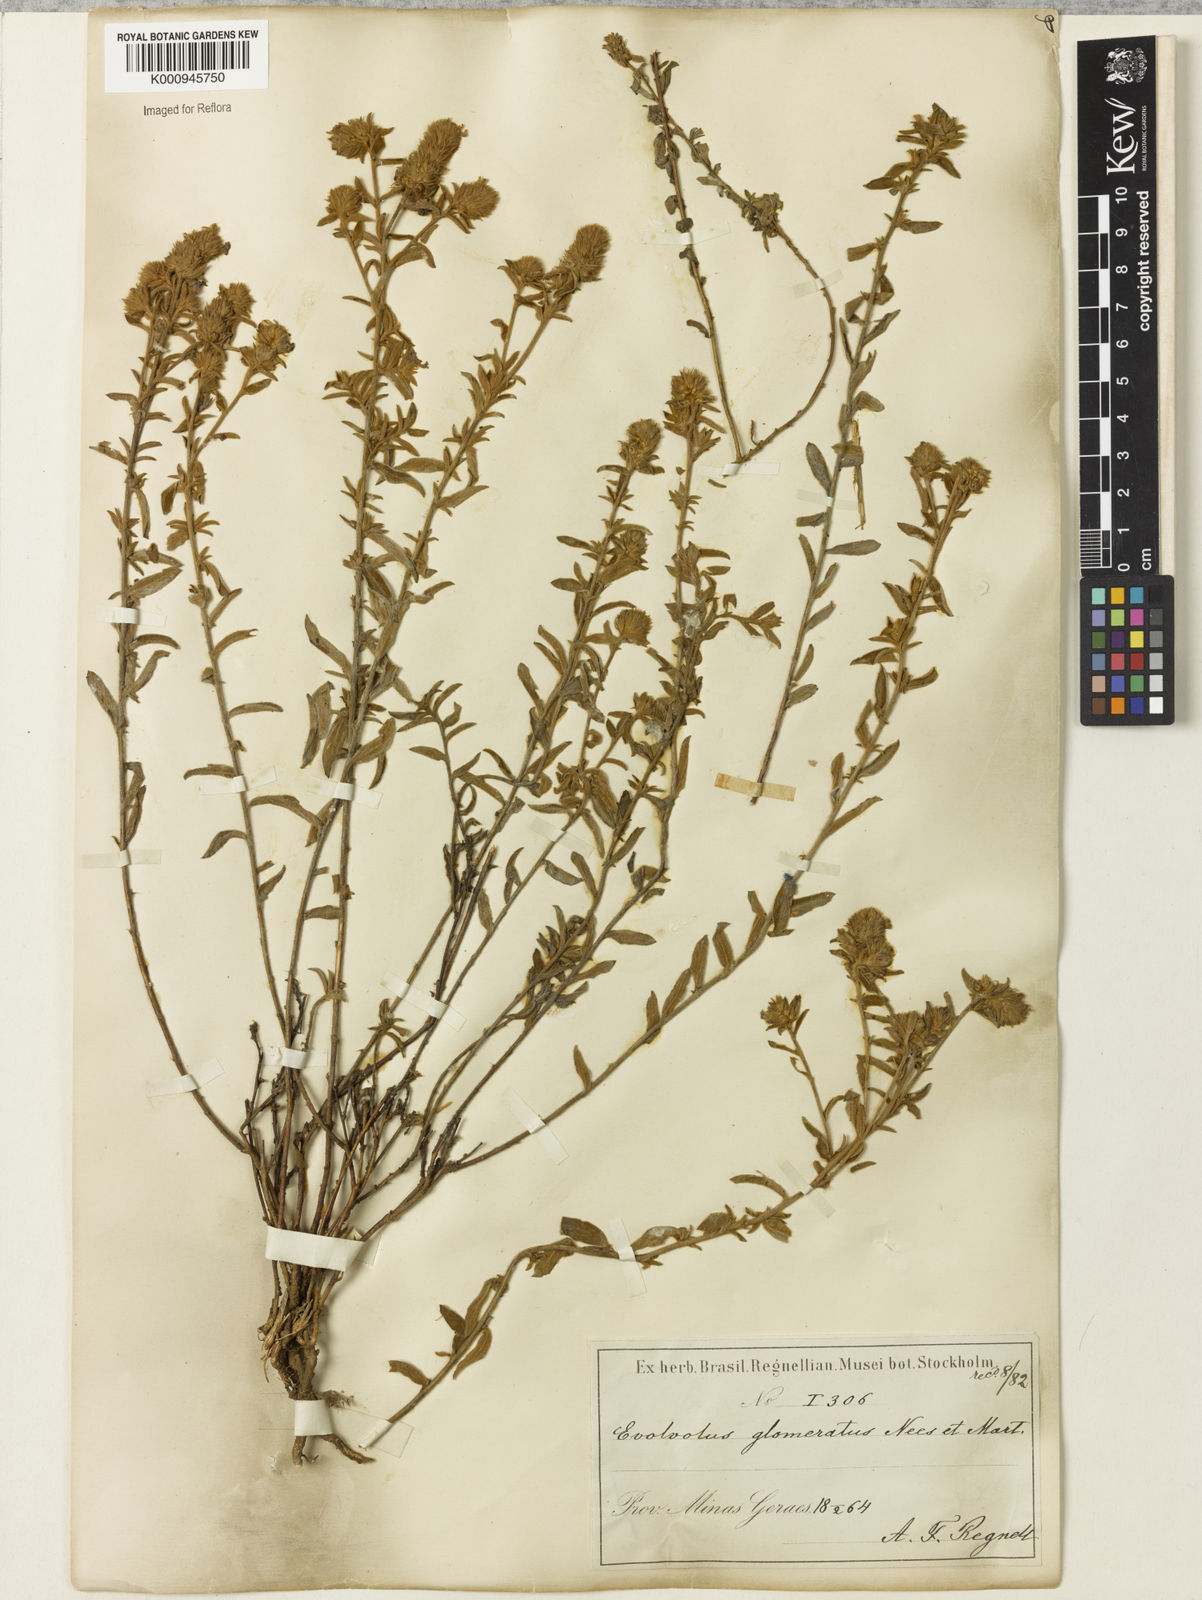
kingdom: Plantae
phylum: Tracheophyta
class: Magnoliopsida
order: Solanales
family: Convolvulaceae
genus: Evolvulus
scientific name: Evolvulus glomeratus
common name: Brazilian dwarf morning-glory
